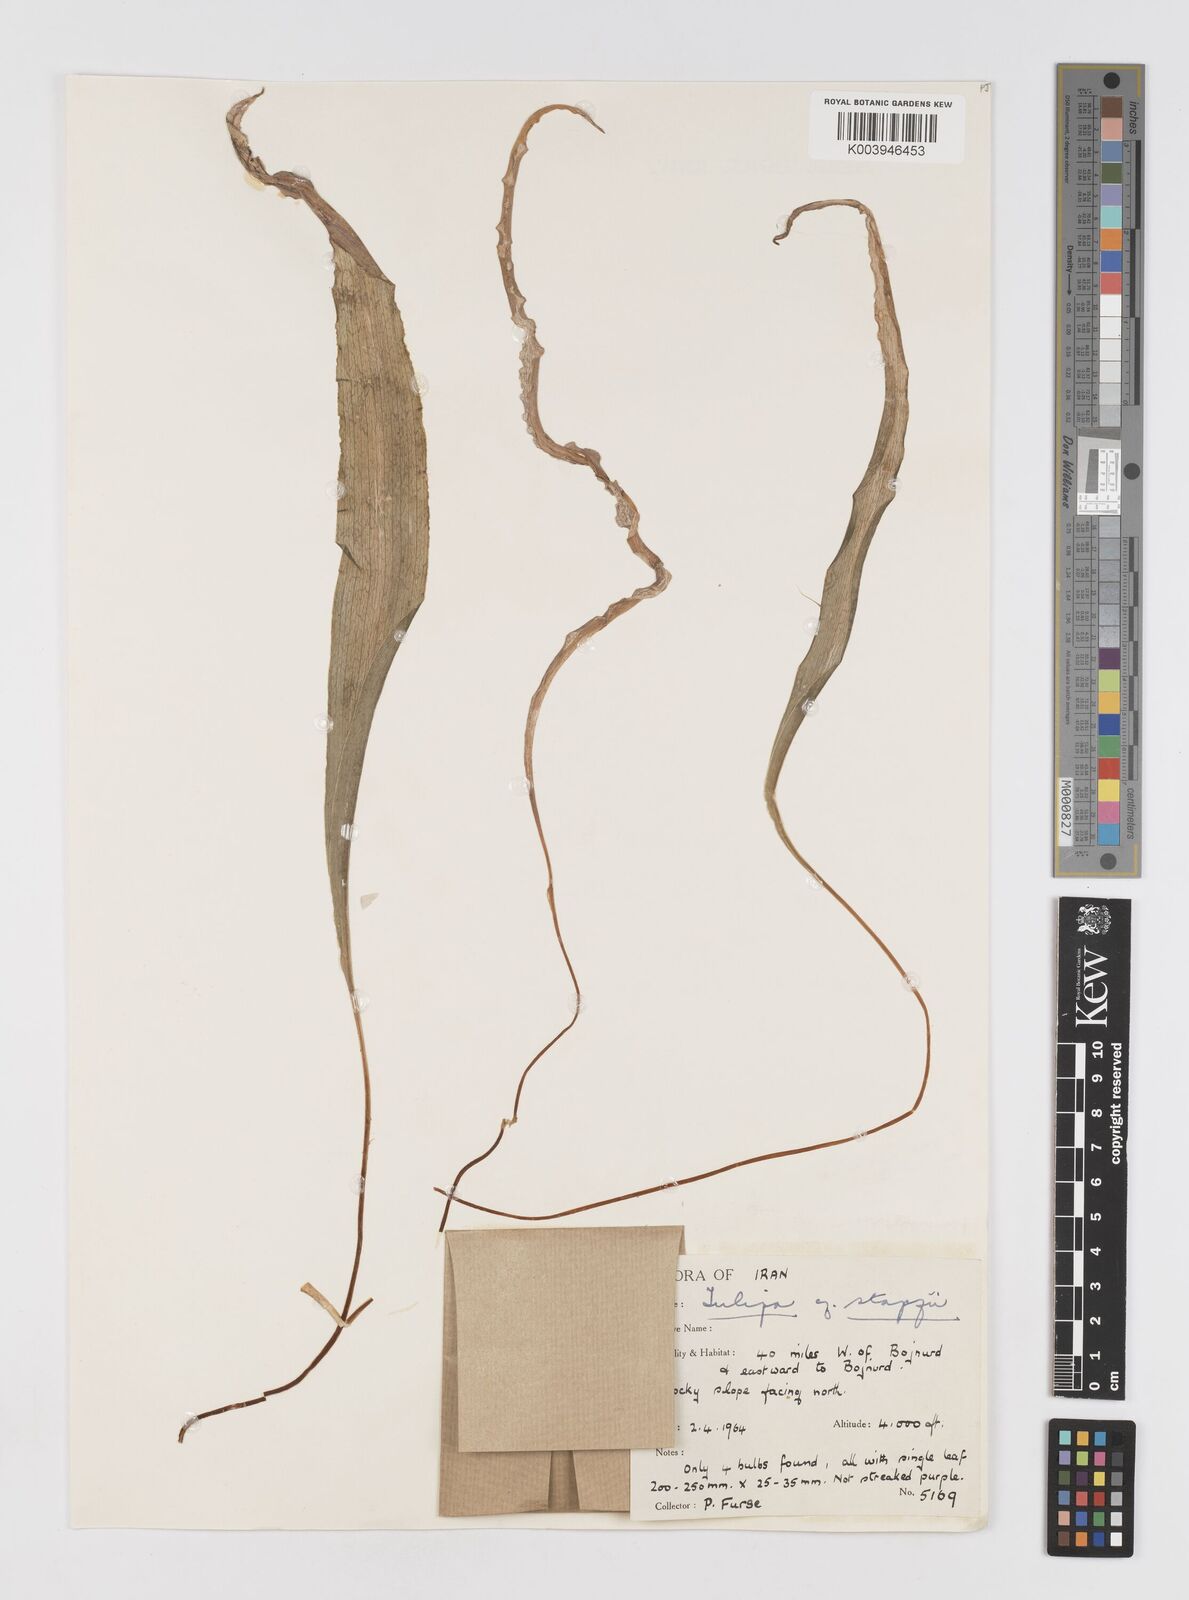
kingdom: Plantae
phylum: Tracheophyta
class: Liliopsida
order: Liliales
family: Liliaceae
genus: Tulipa
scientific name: Tulipa
